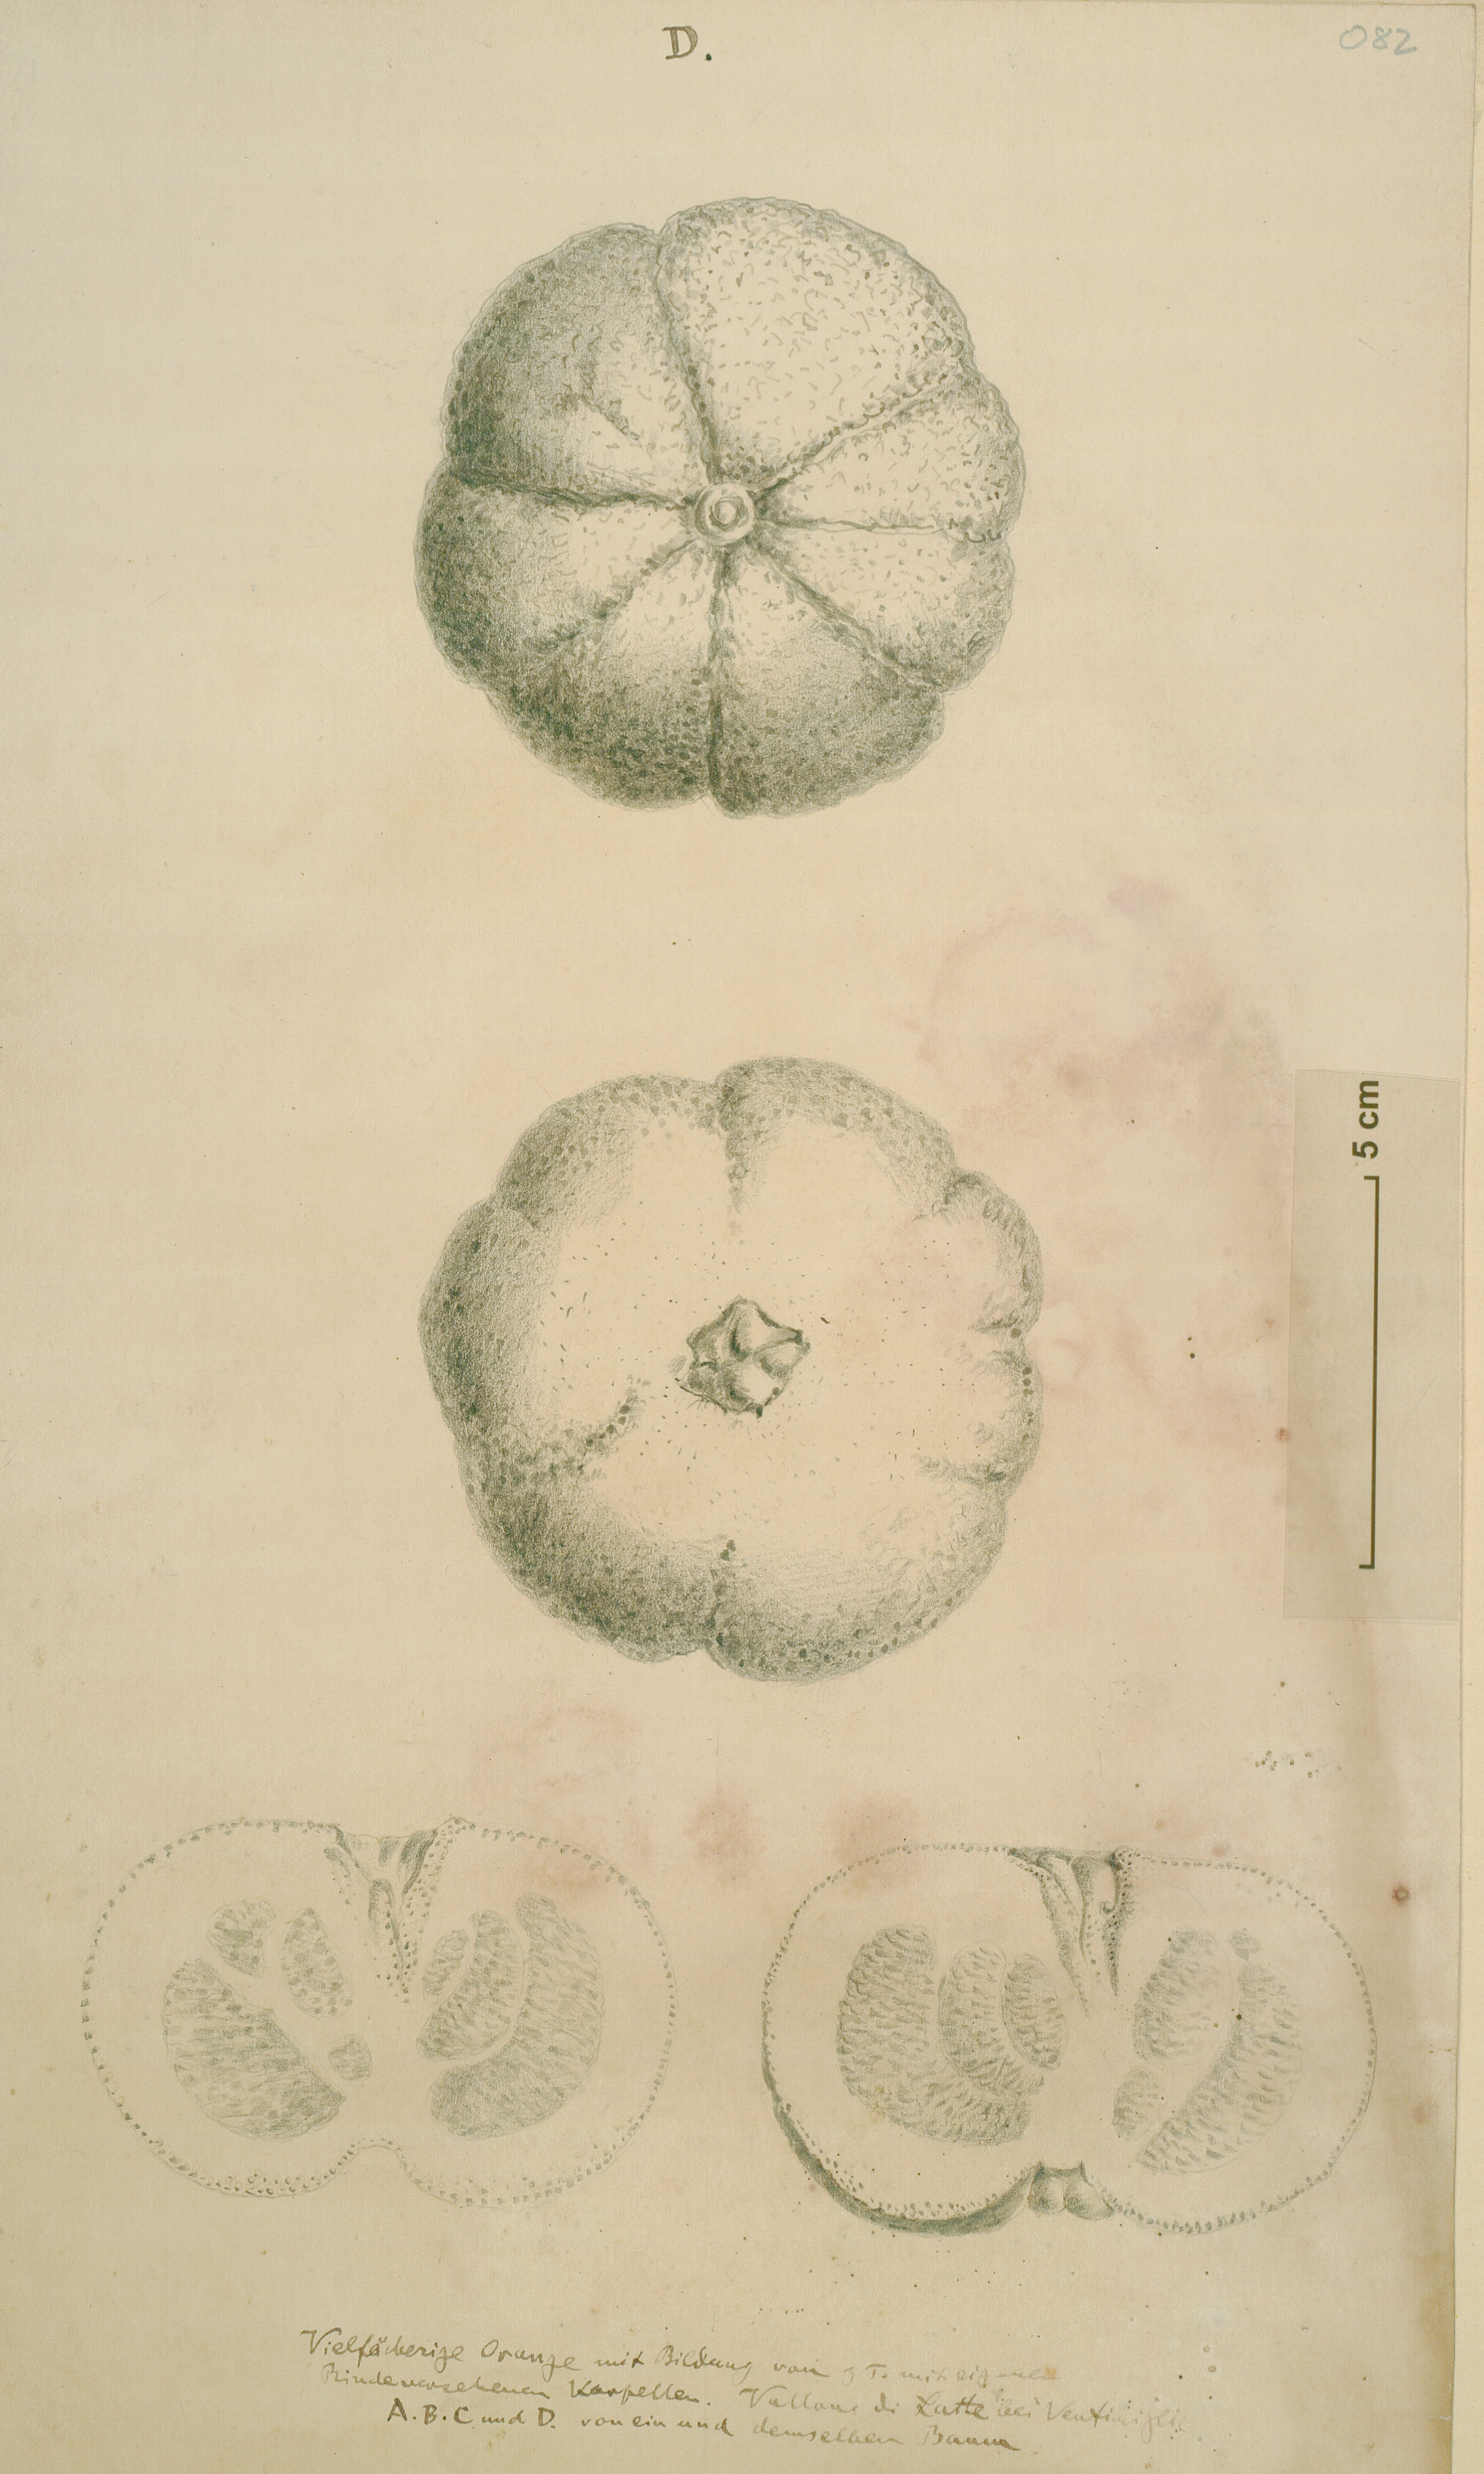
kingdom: Plantae
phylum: Tracheophyta
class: Magnoliopsida
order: Sapindales
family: Rutaceae
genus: Citrus
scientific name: Citrus
